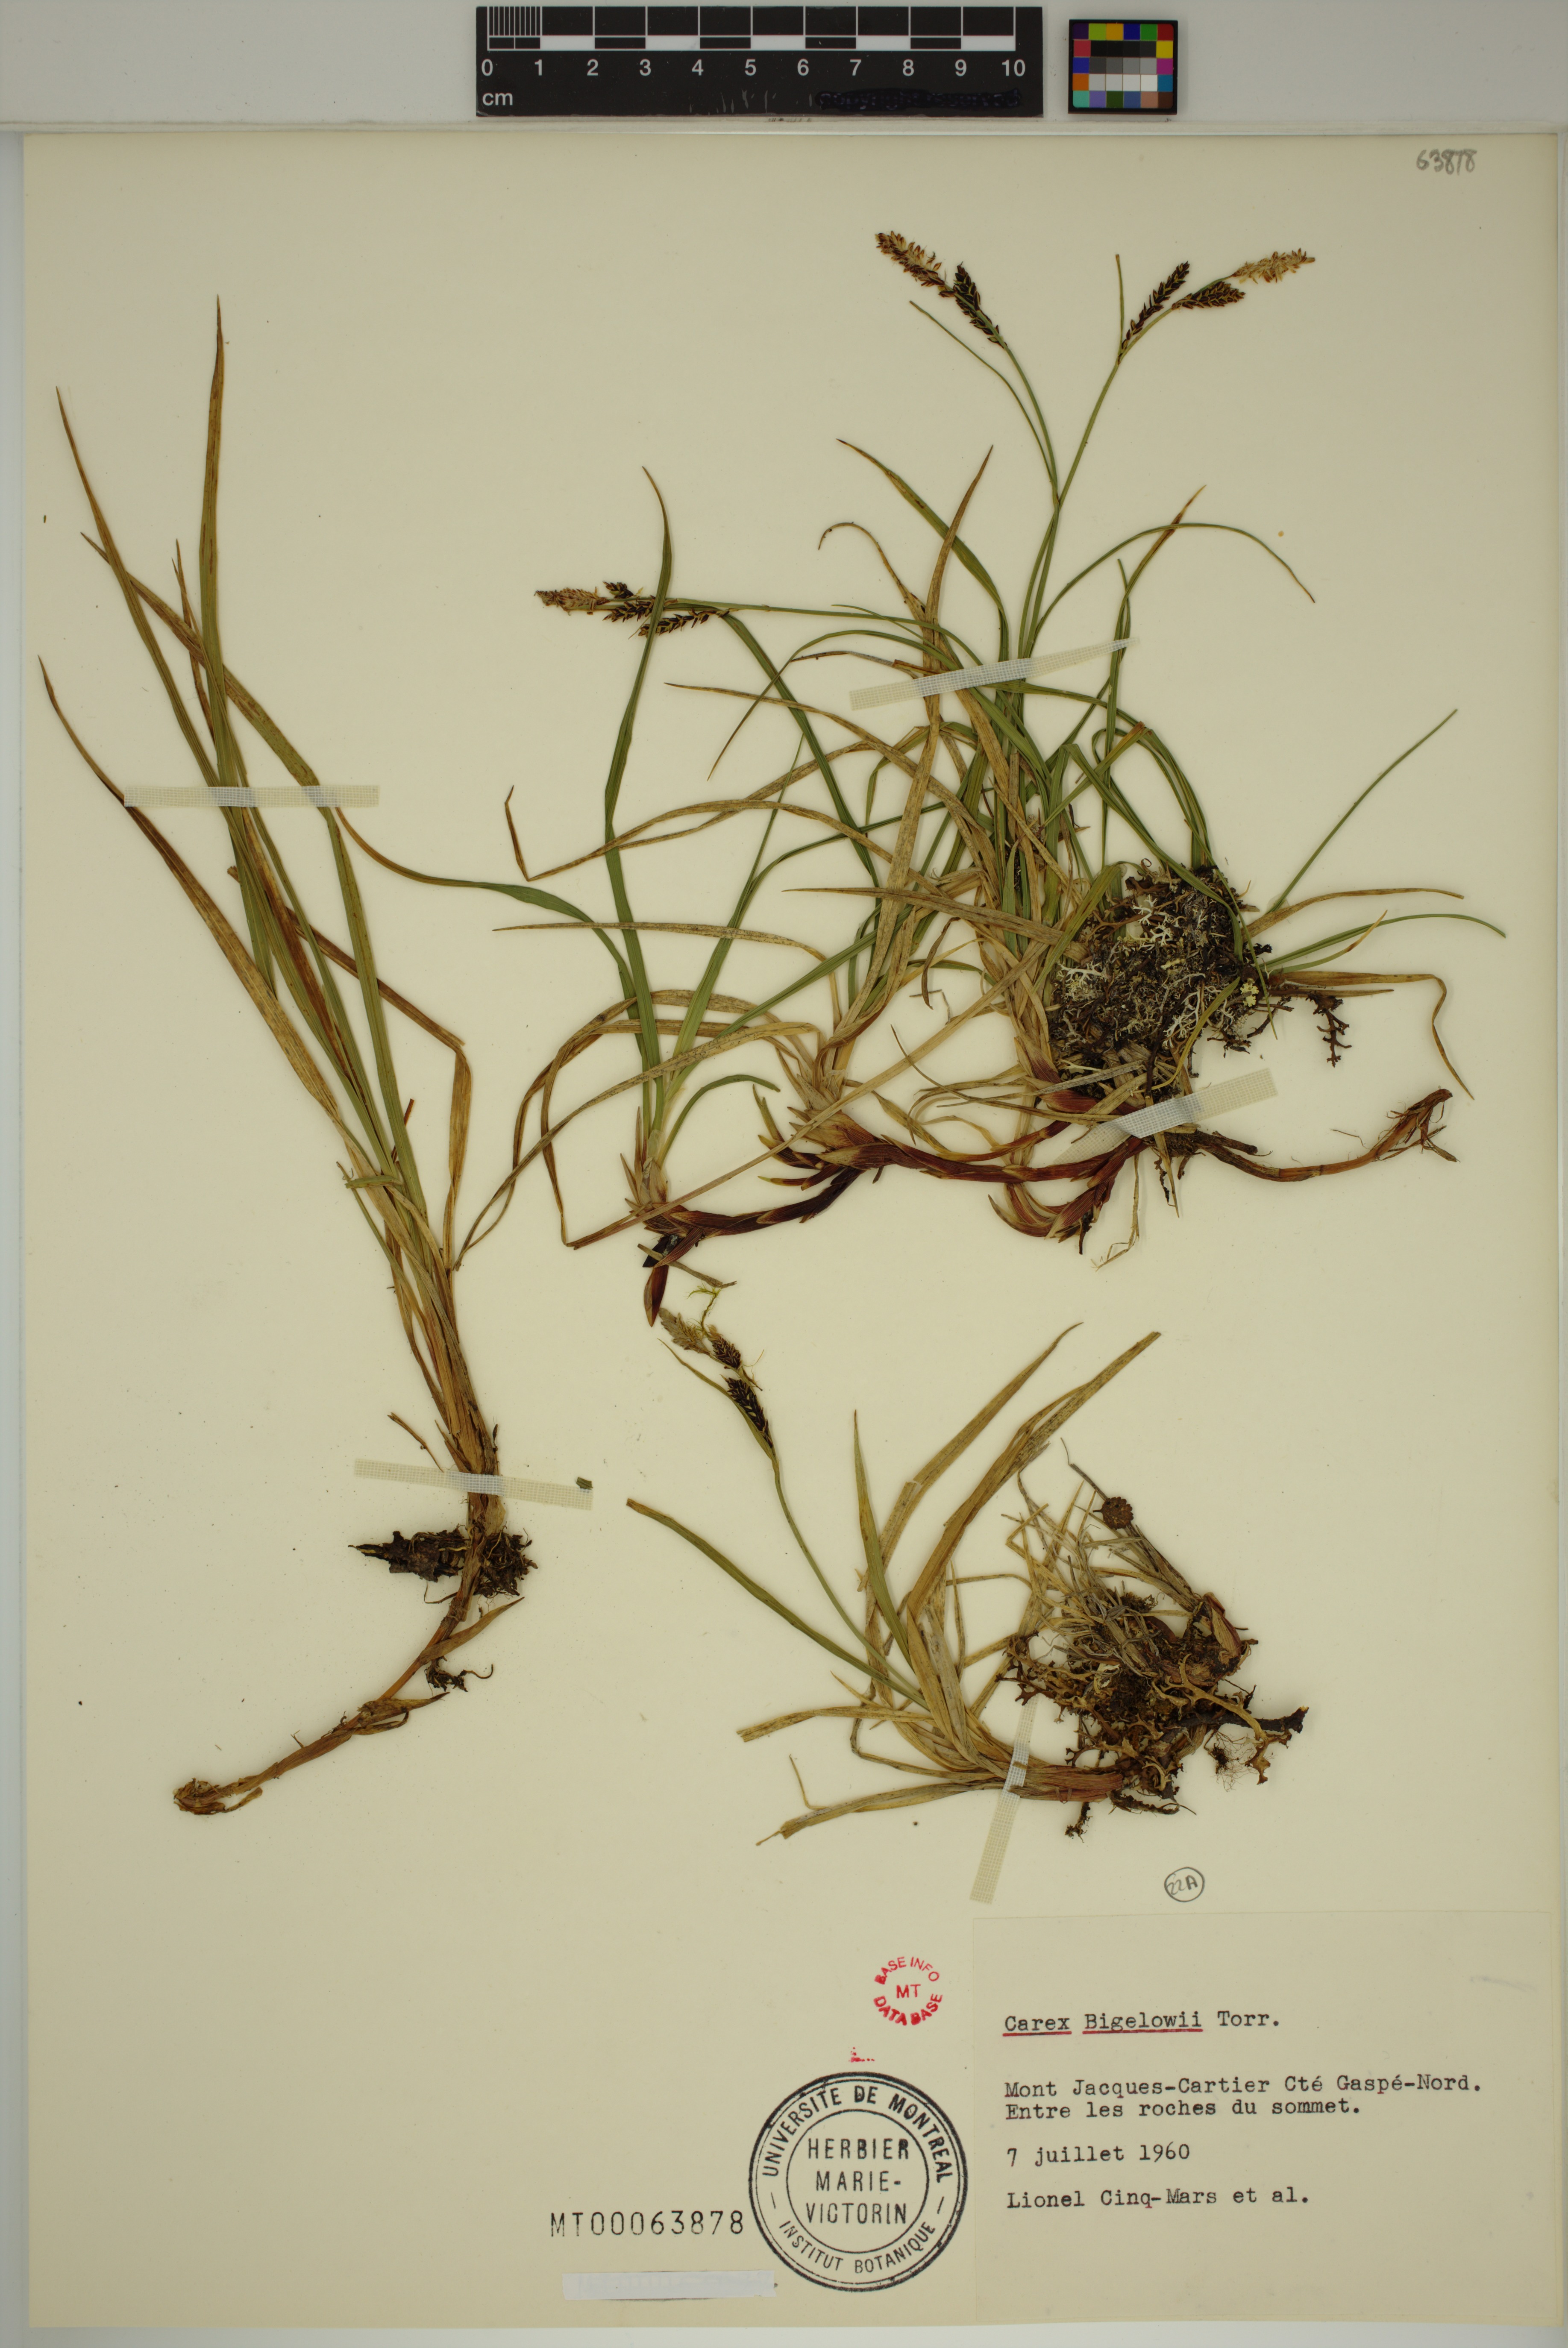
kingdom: Plantae
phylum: Tracheophyta
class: Liliopsida
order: Poales
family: Cyperaceae
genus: Carex
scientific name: Carex bigelowii
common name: Stiff sedge
